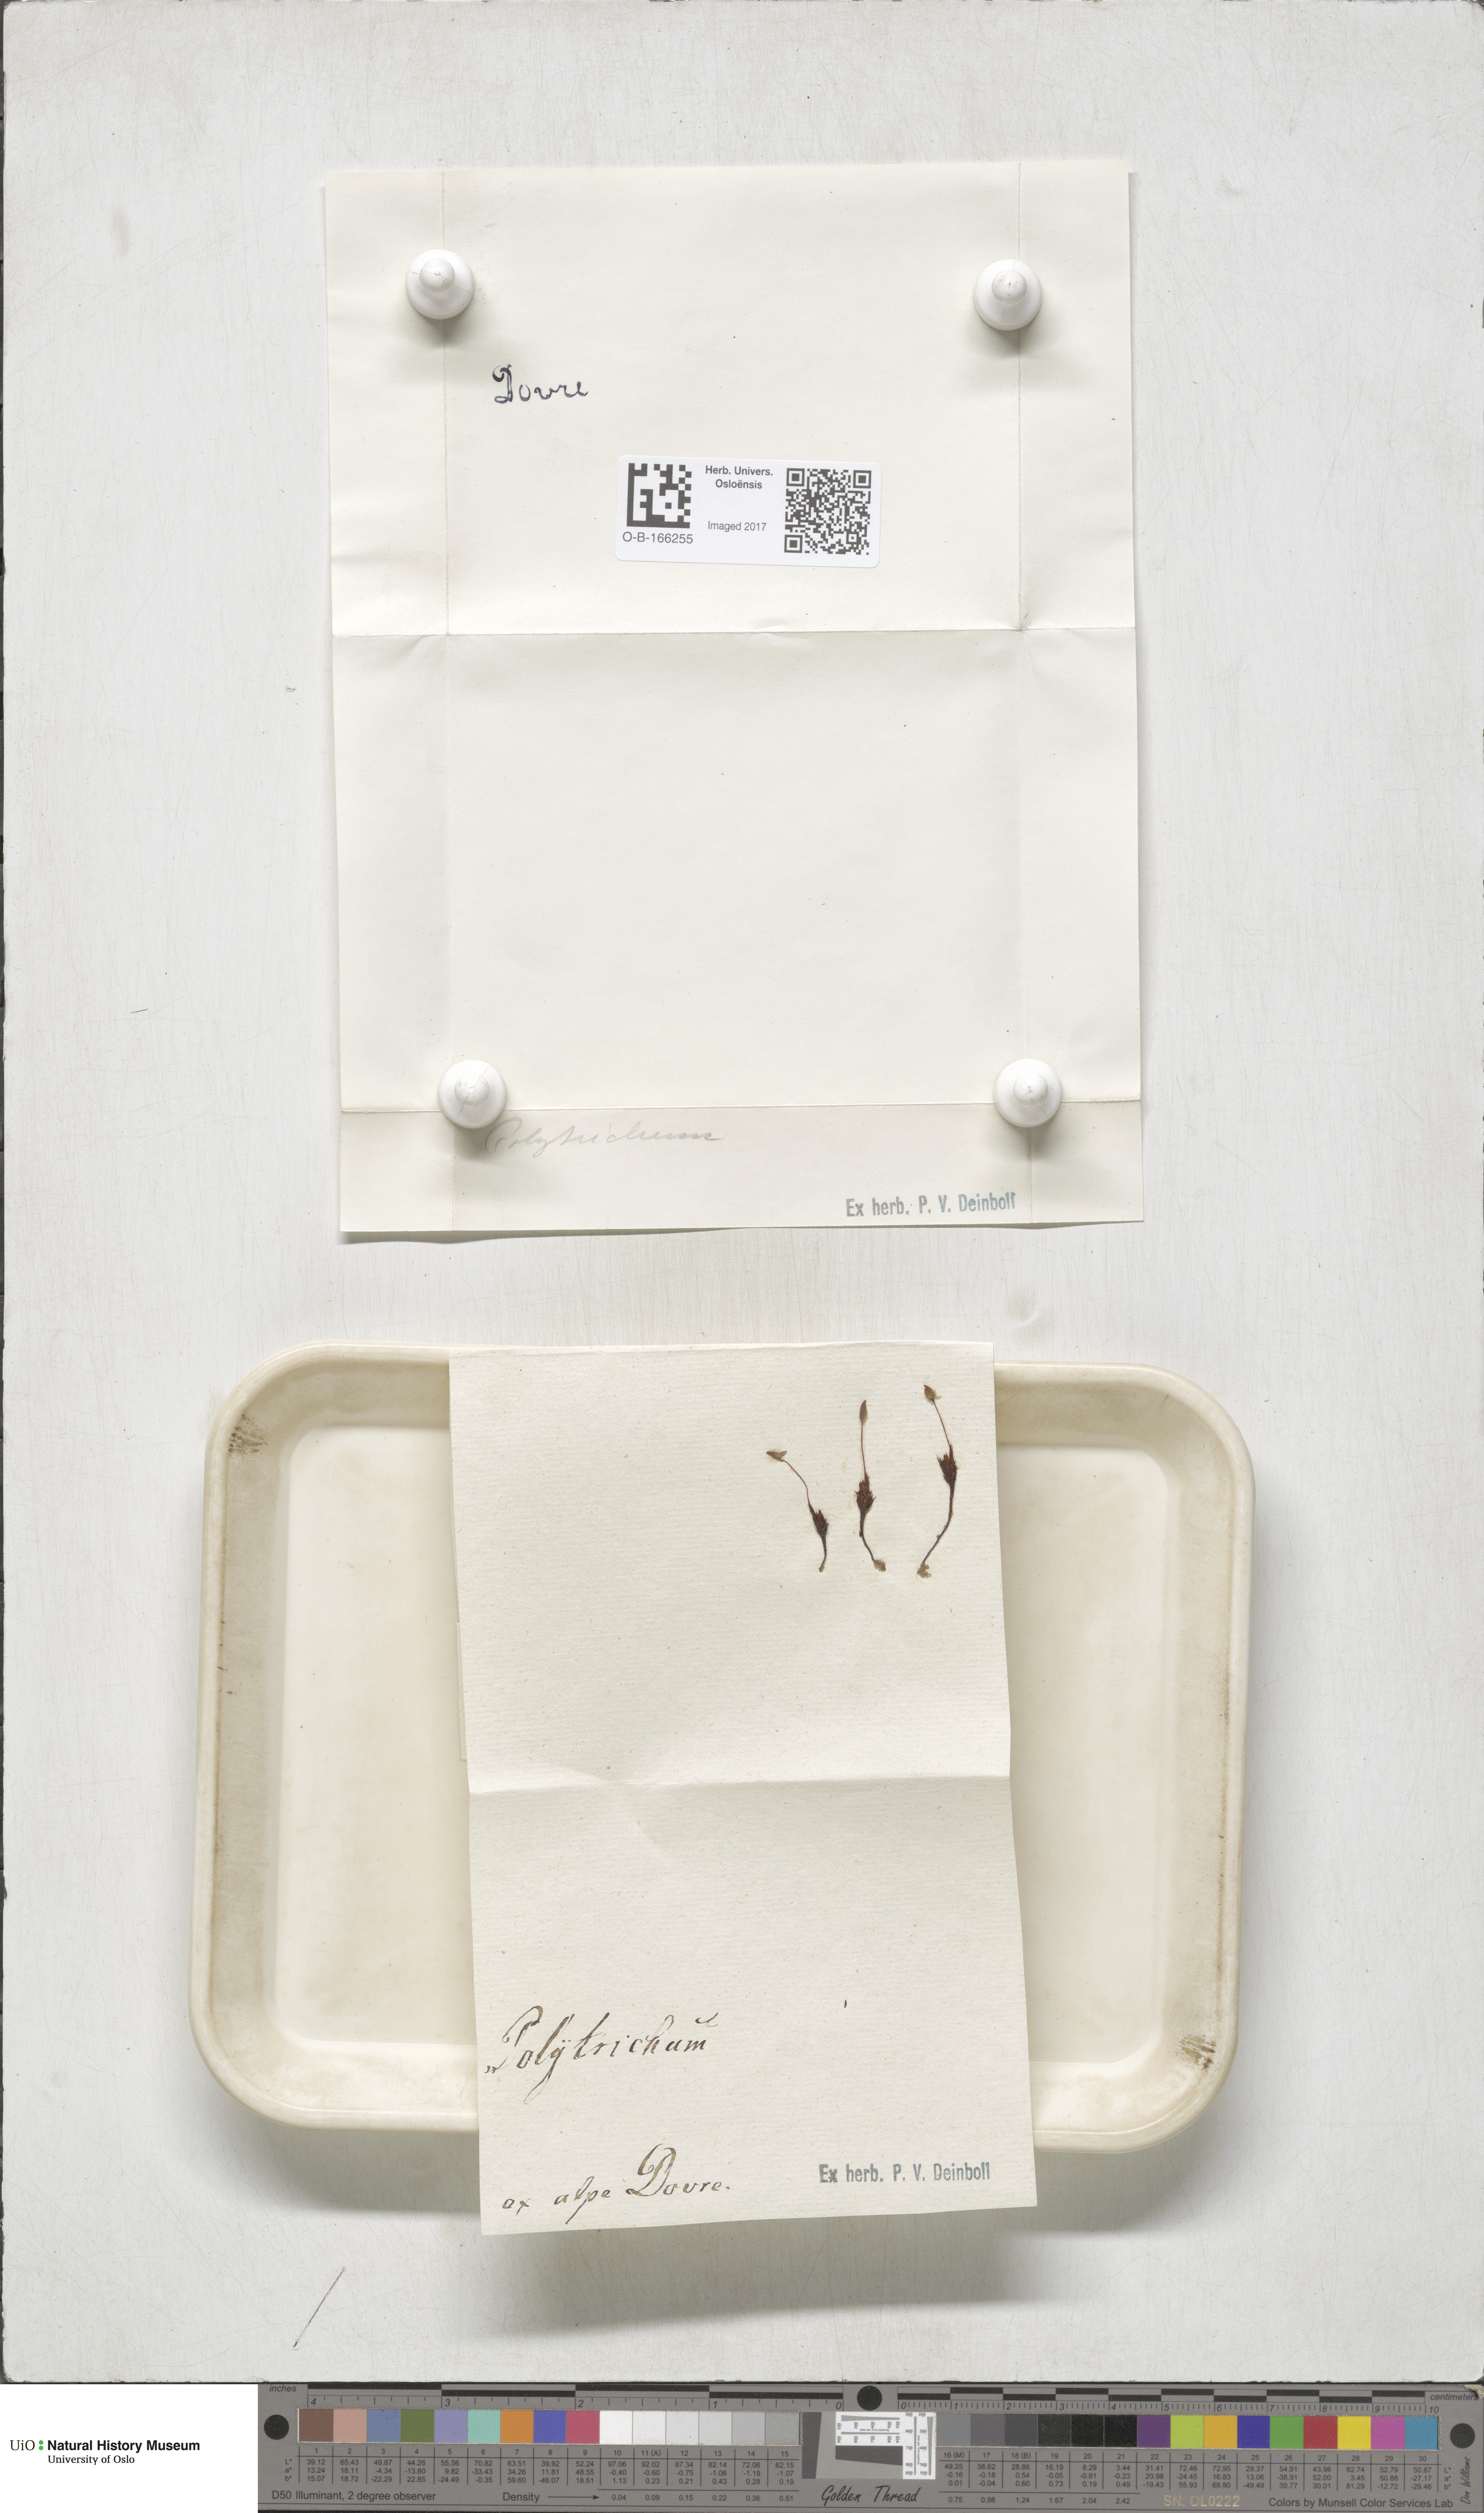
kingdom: Plantae
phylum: Bryophyta
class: Polytrichopsida
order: Polytrichales
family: Polytrichaceae
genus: Polytrichum
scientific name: Polytrichum
